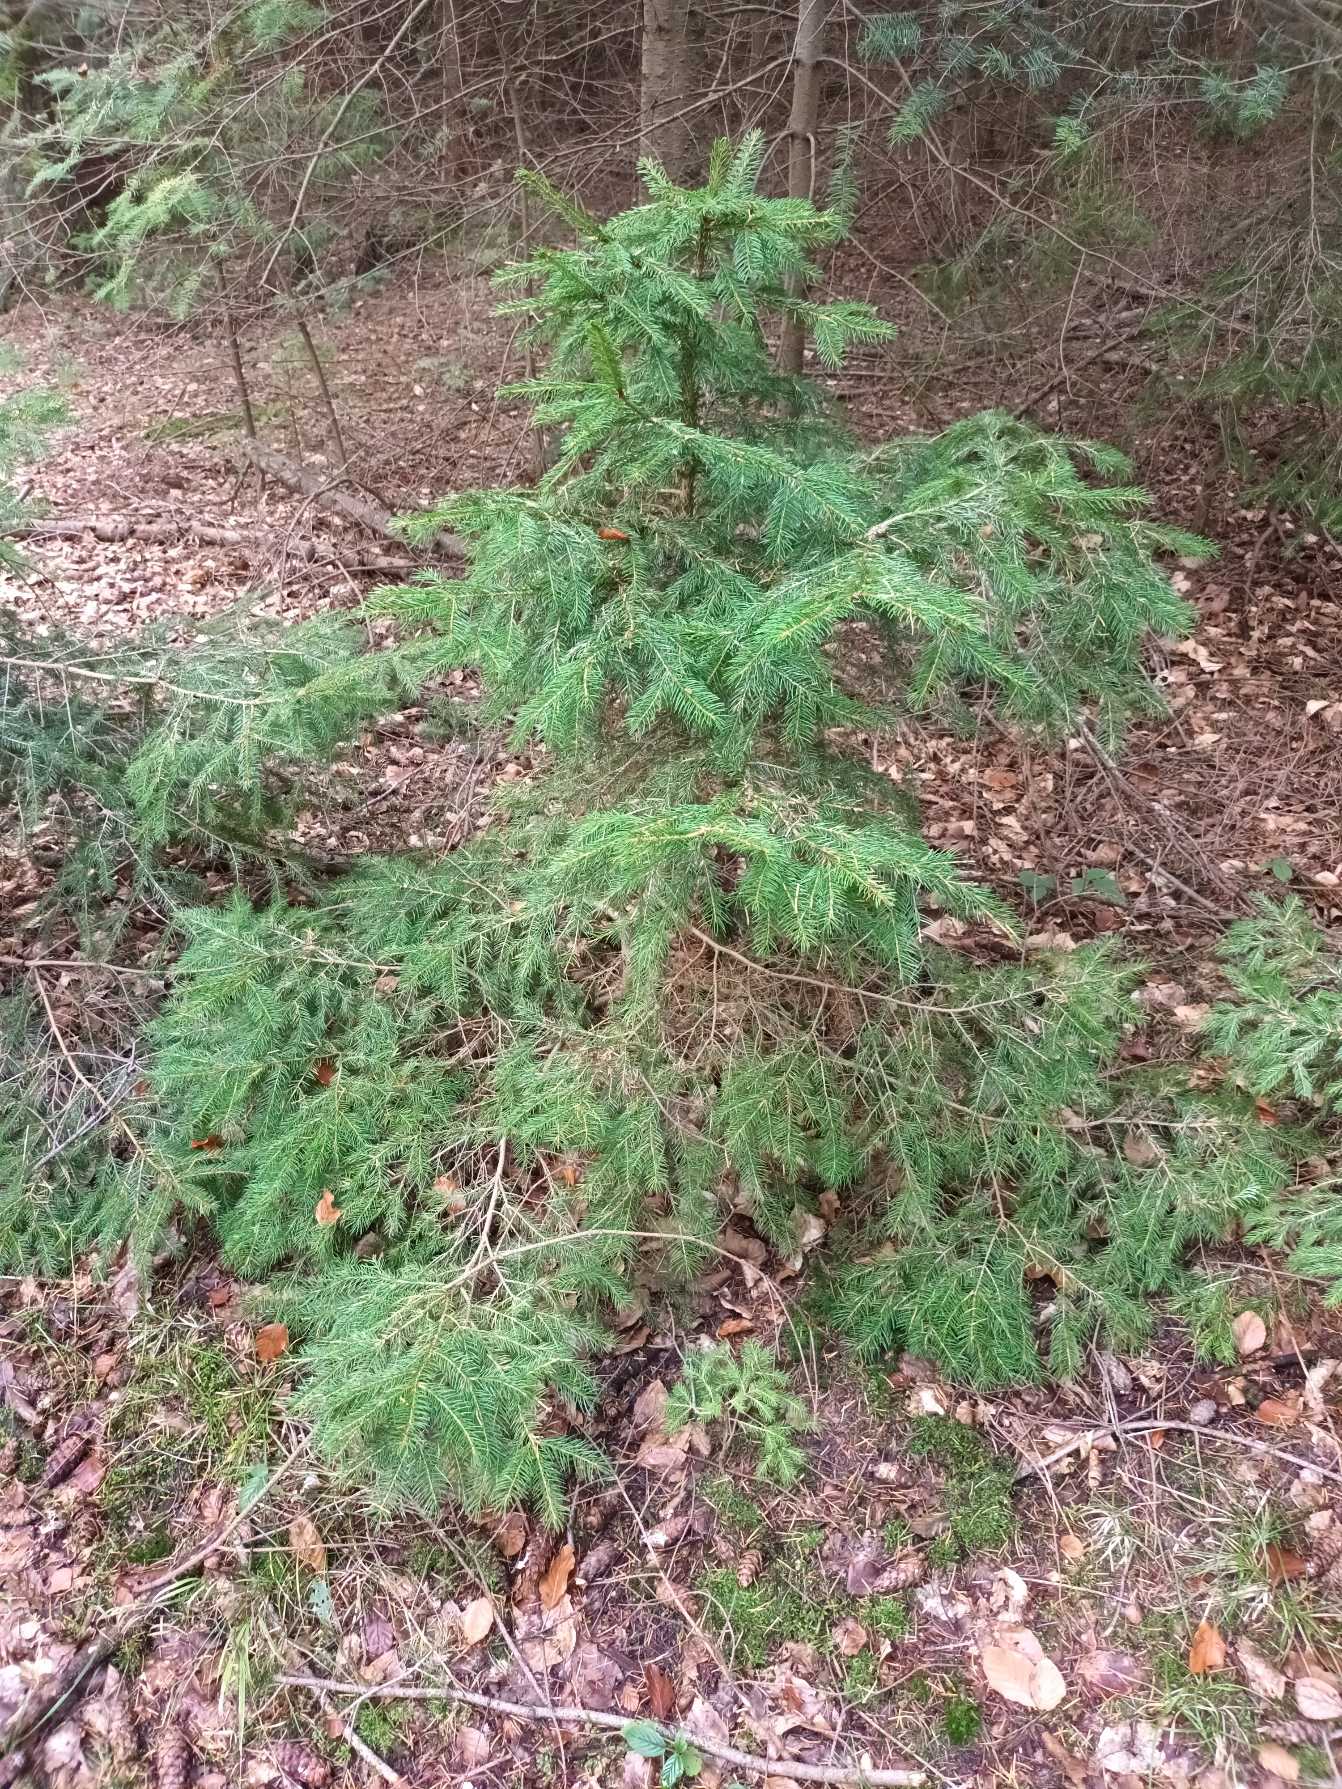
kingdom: Plantae
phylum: Tracheophyta
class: Pinopsida
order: Pinales
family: Pinaceae
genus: Picea
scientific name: Picea abies
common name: Rød-gran
